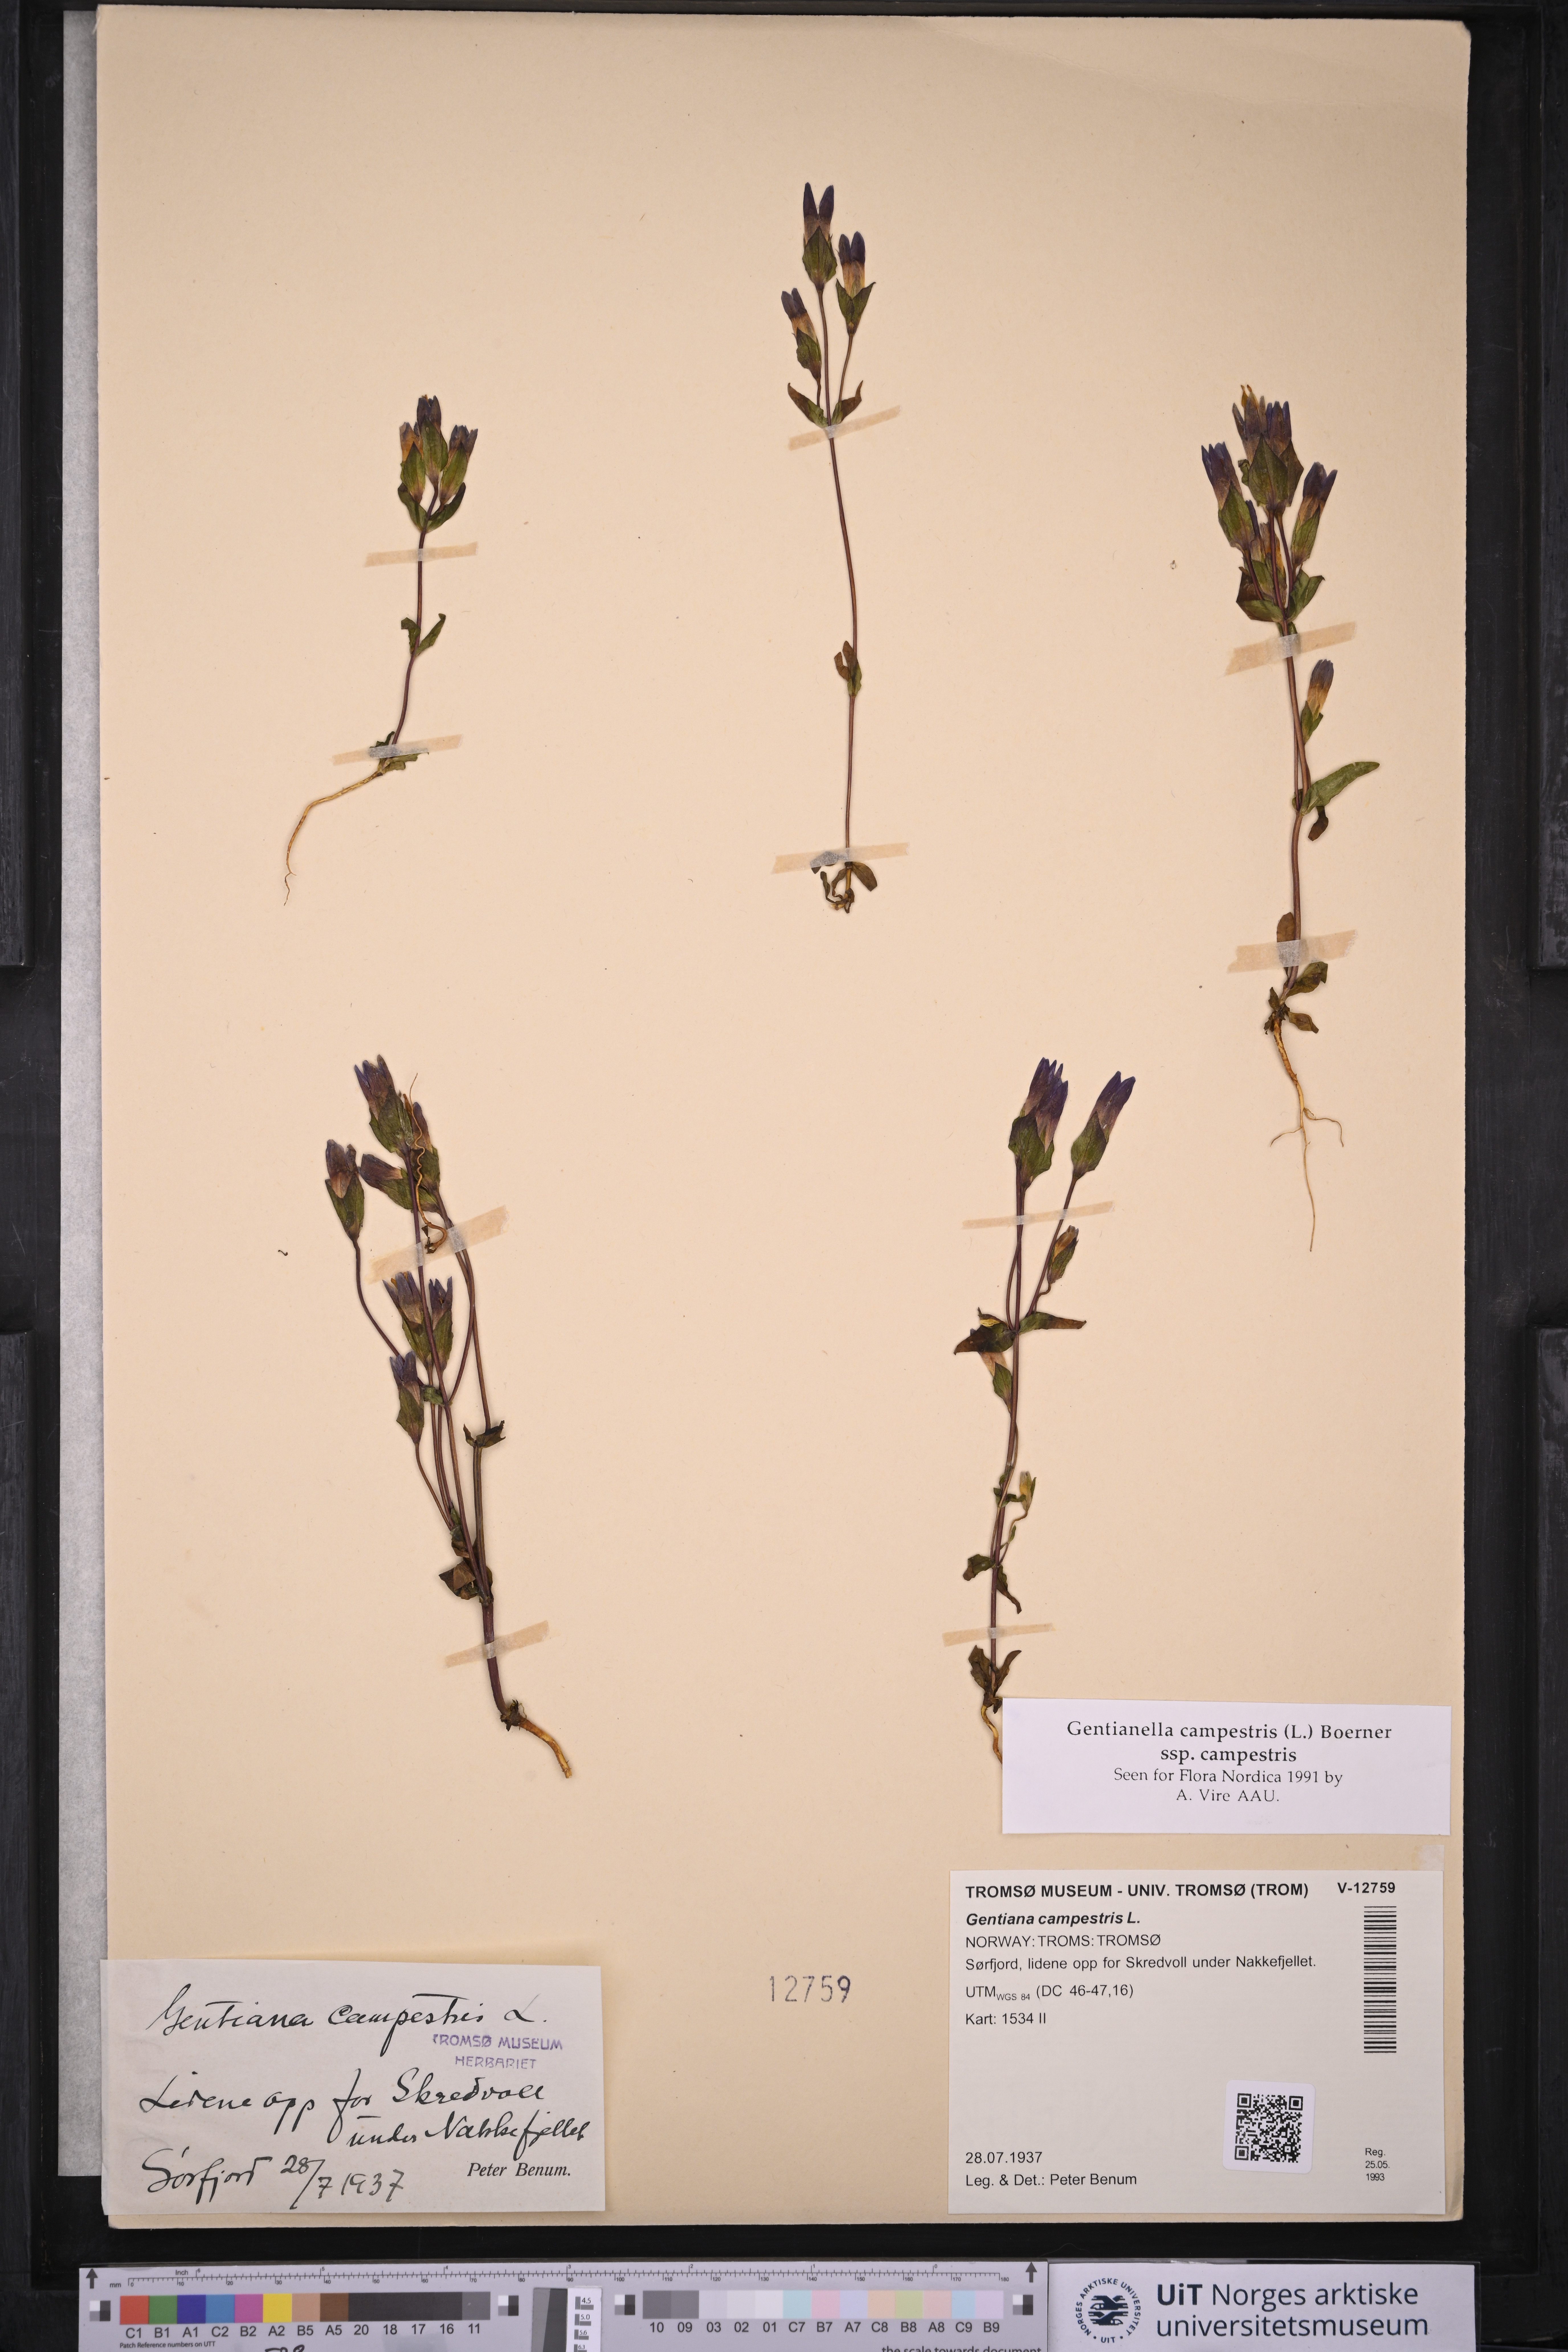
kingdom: Plantae
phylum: Tracheophyta
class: Magnoliopsida
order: Gentianales
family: Gentianaceae
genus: Gentianella
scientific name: Gentianella campestris
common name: Field gentian
